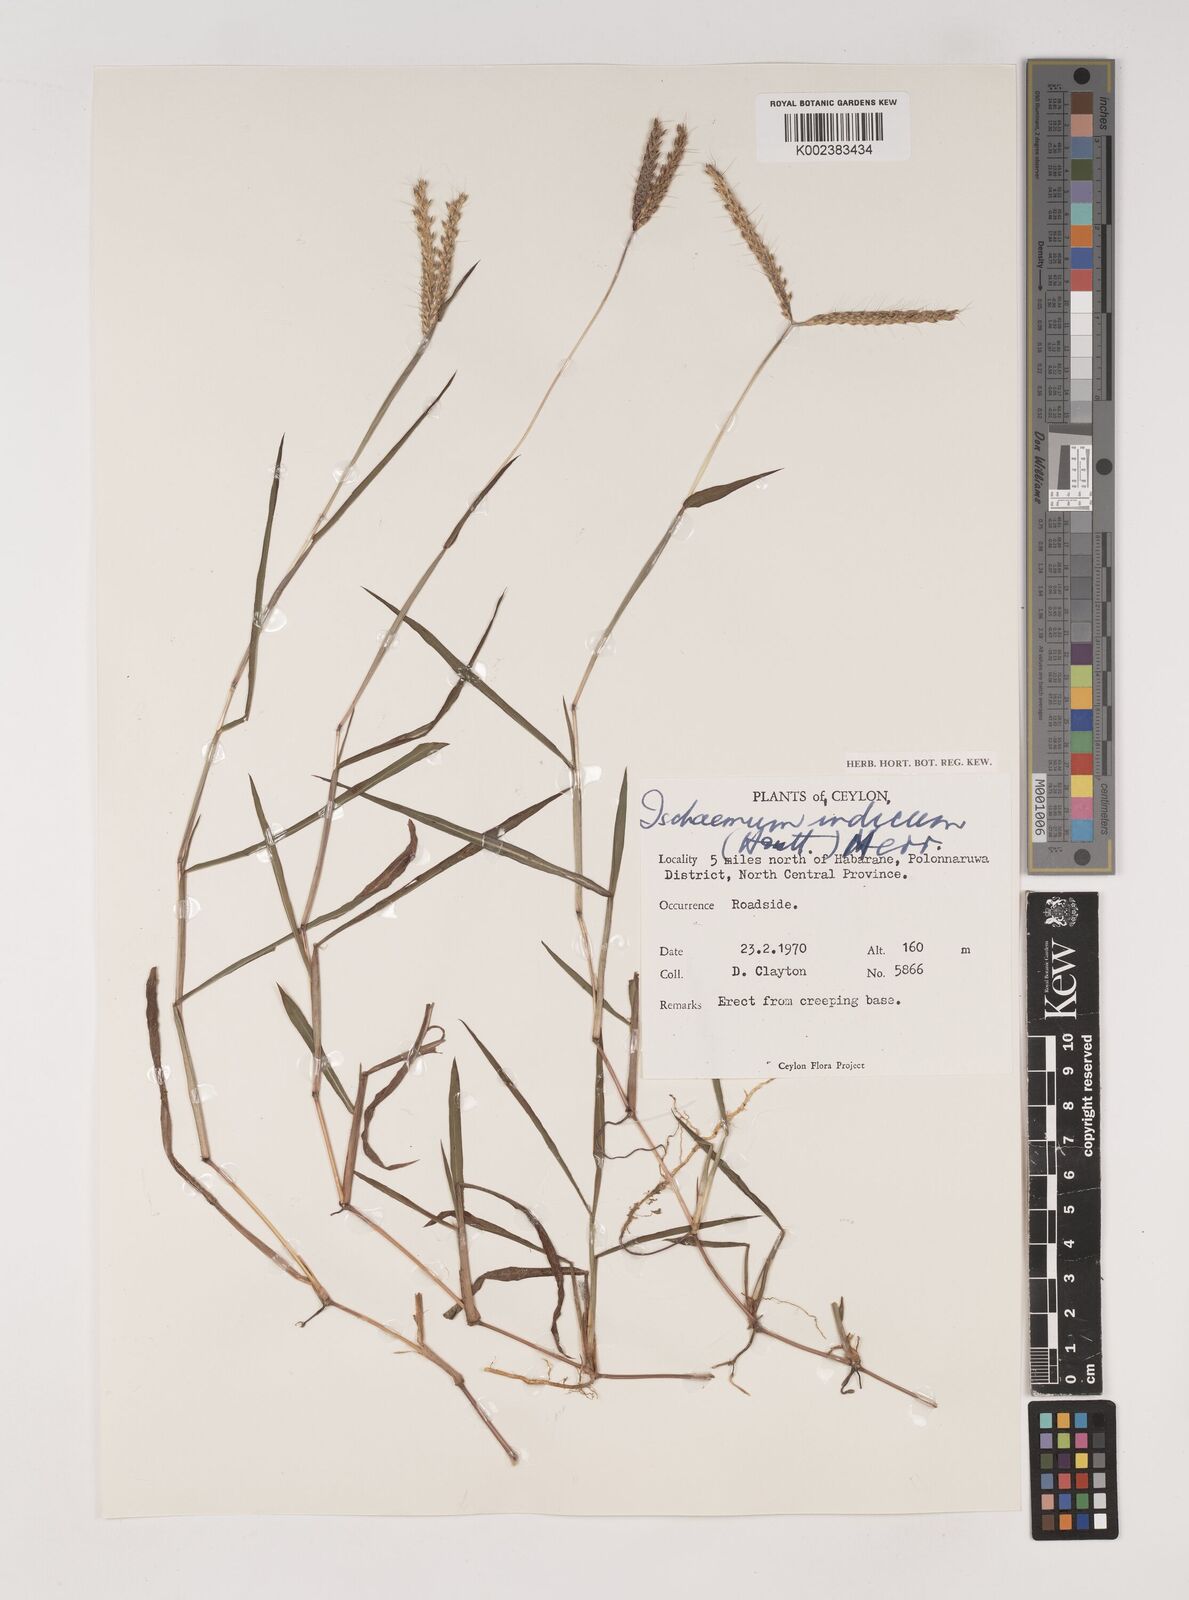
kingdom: Plantae
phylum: Tracheophyta
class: Liliopsida
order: Poales
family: Poaceae
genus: Polytrias
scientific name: Polytrias indica
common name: Indian murainagrass
